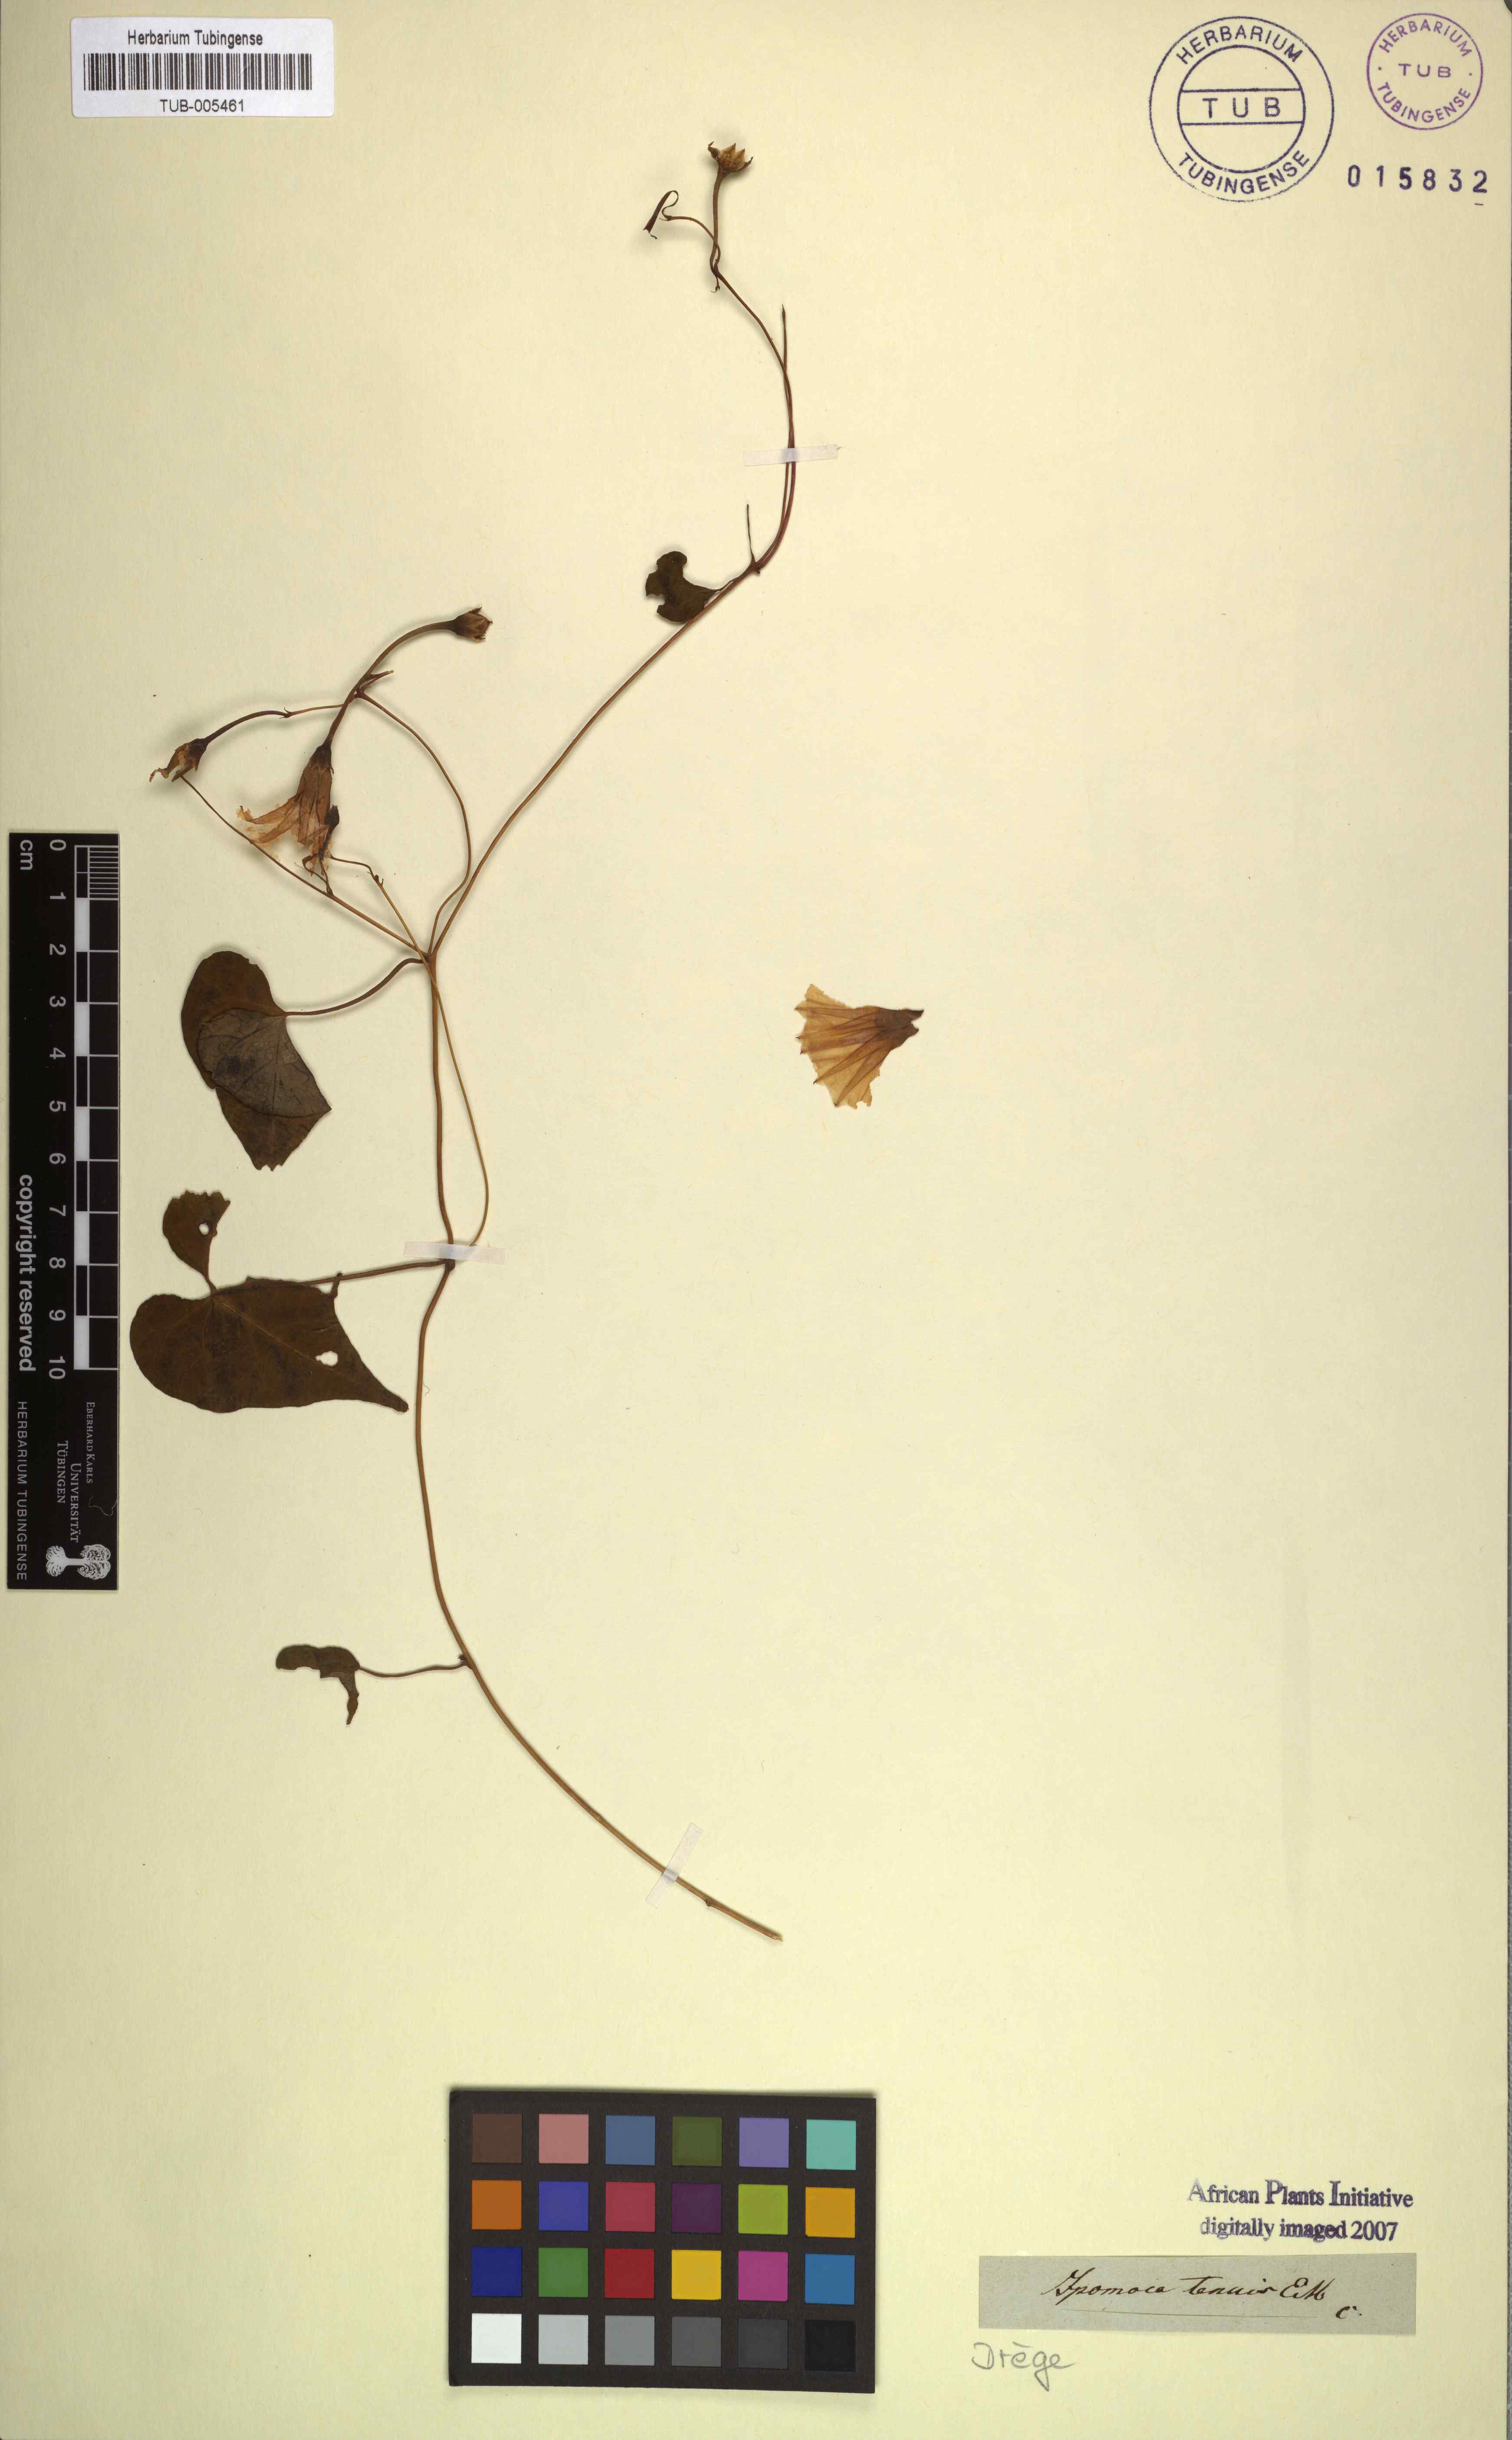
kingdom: Plantae
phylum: Tracheophyta
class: Magnoliopsida
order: Solanales
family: Convolvulaceae
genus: Ipomoea
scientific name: Ipomoea obscura
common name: Obscure morning-glory
